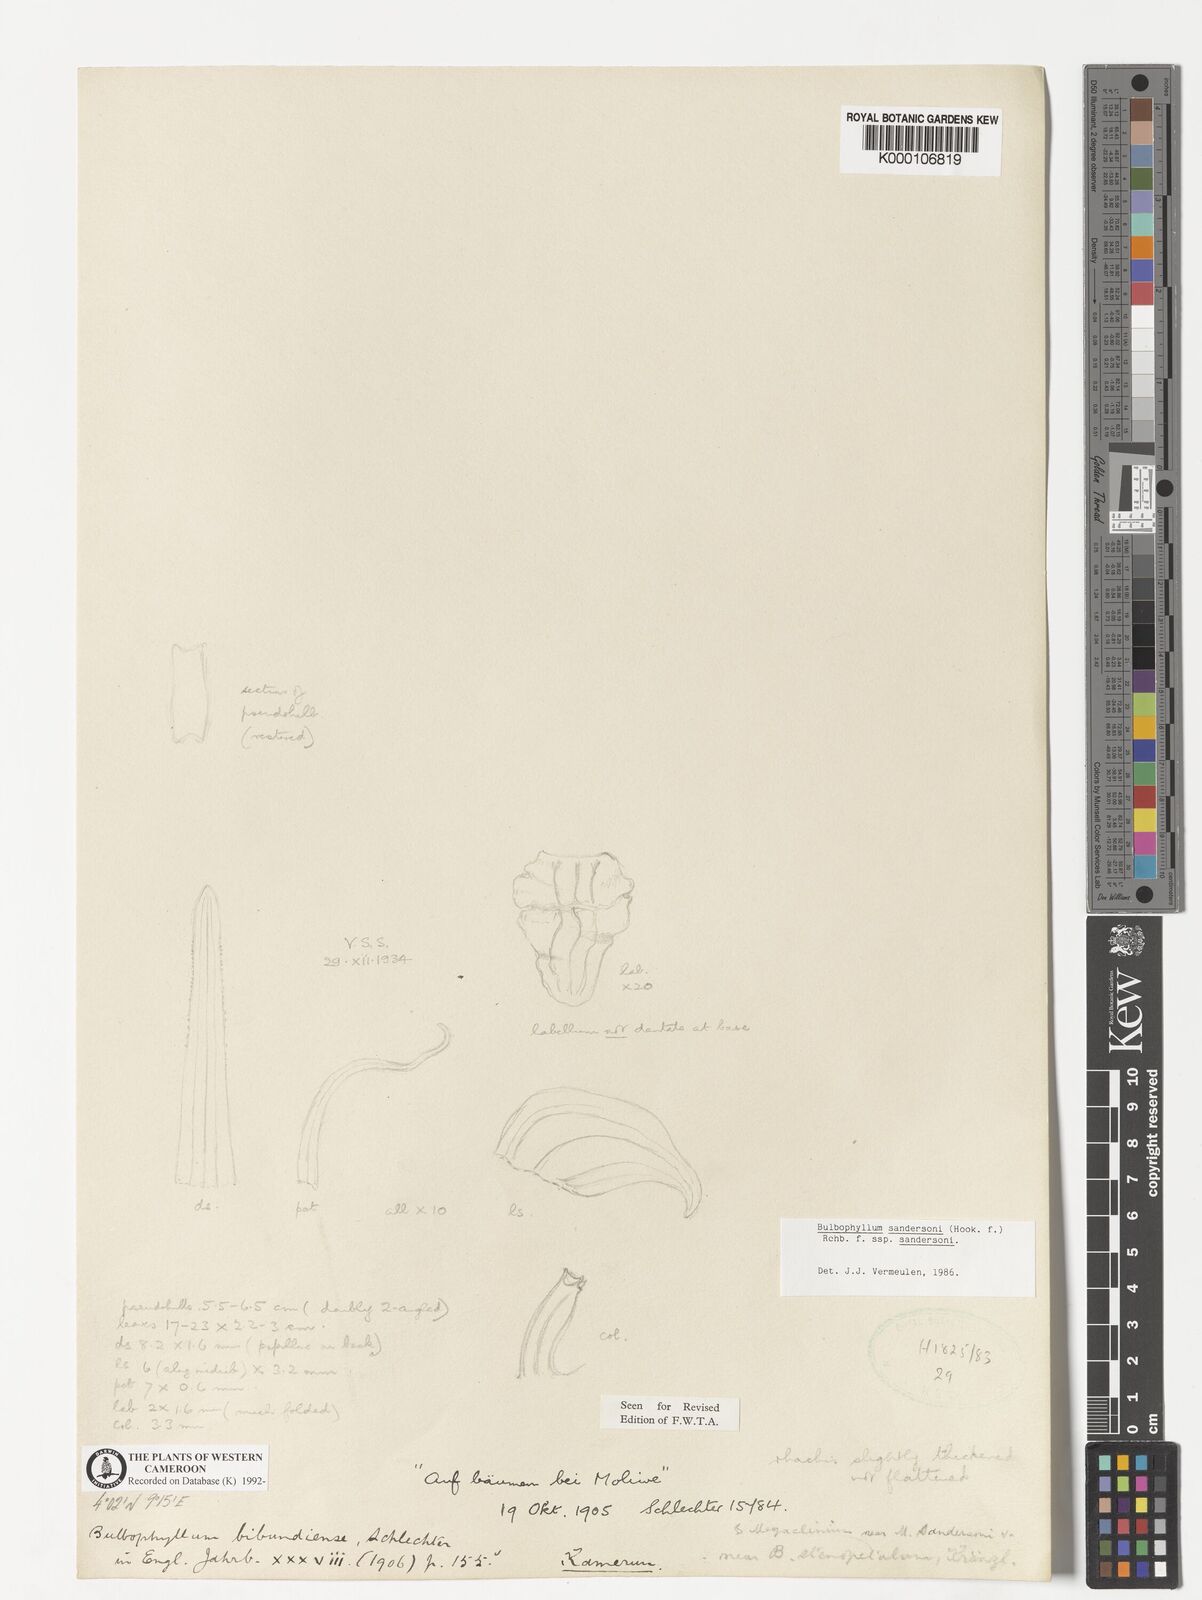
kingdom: Plantae
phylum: Tracheophyta
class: Liliopsida
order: Asparagales
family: Orchidaceae
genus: Bulbophyllum
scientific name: Bulbophyllum sandersonii
